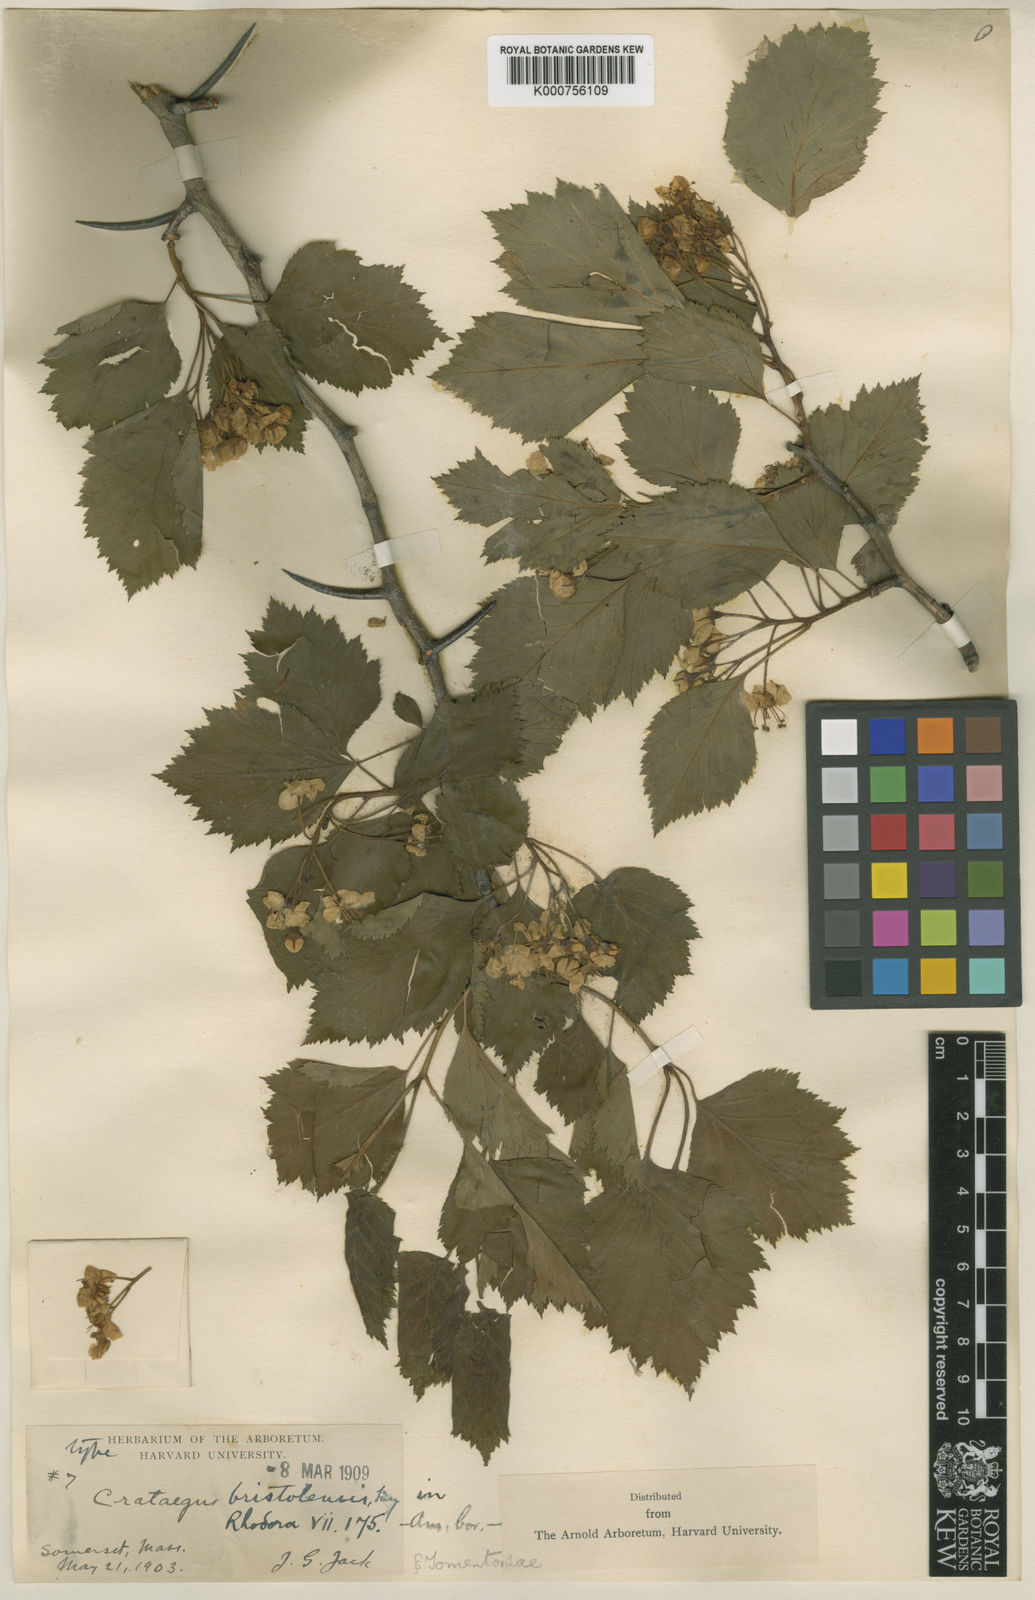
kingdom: Plantae
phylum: Tracheophyta
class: Magnoliopsida
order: Rosales
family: Rosaceae
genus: Crataegus
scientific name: Crataegus bristolensis
